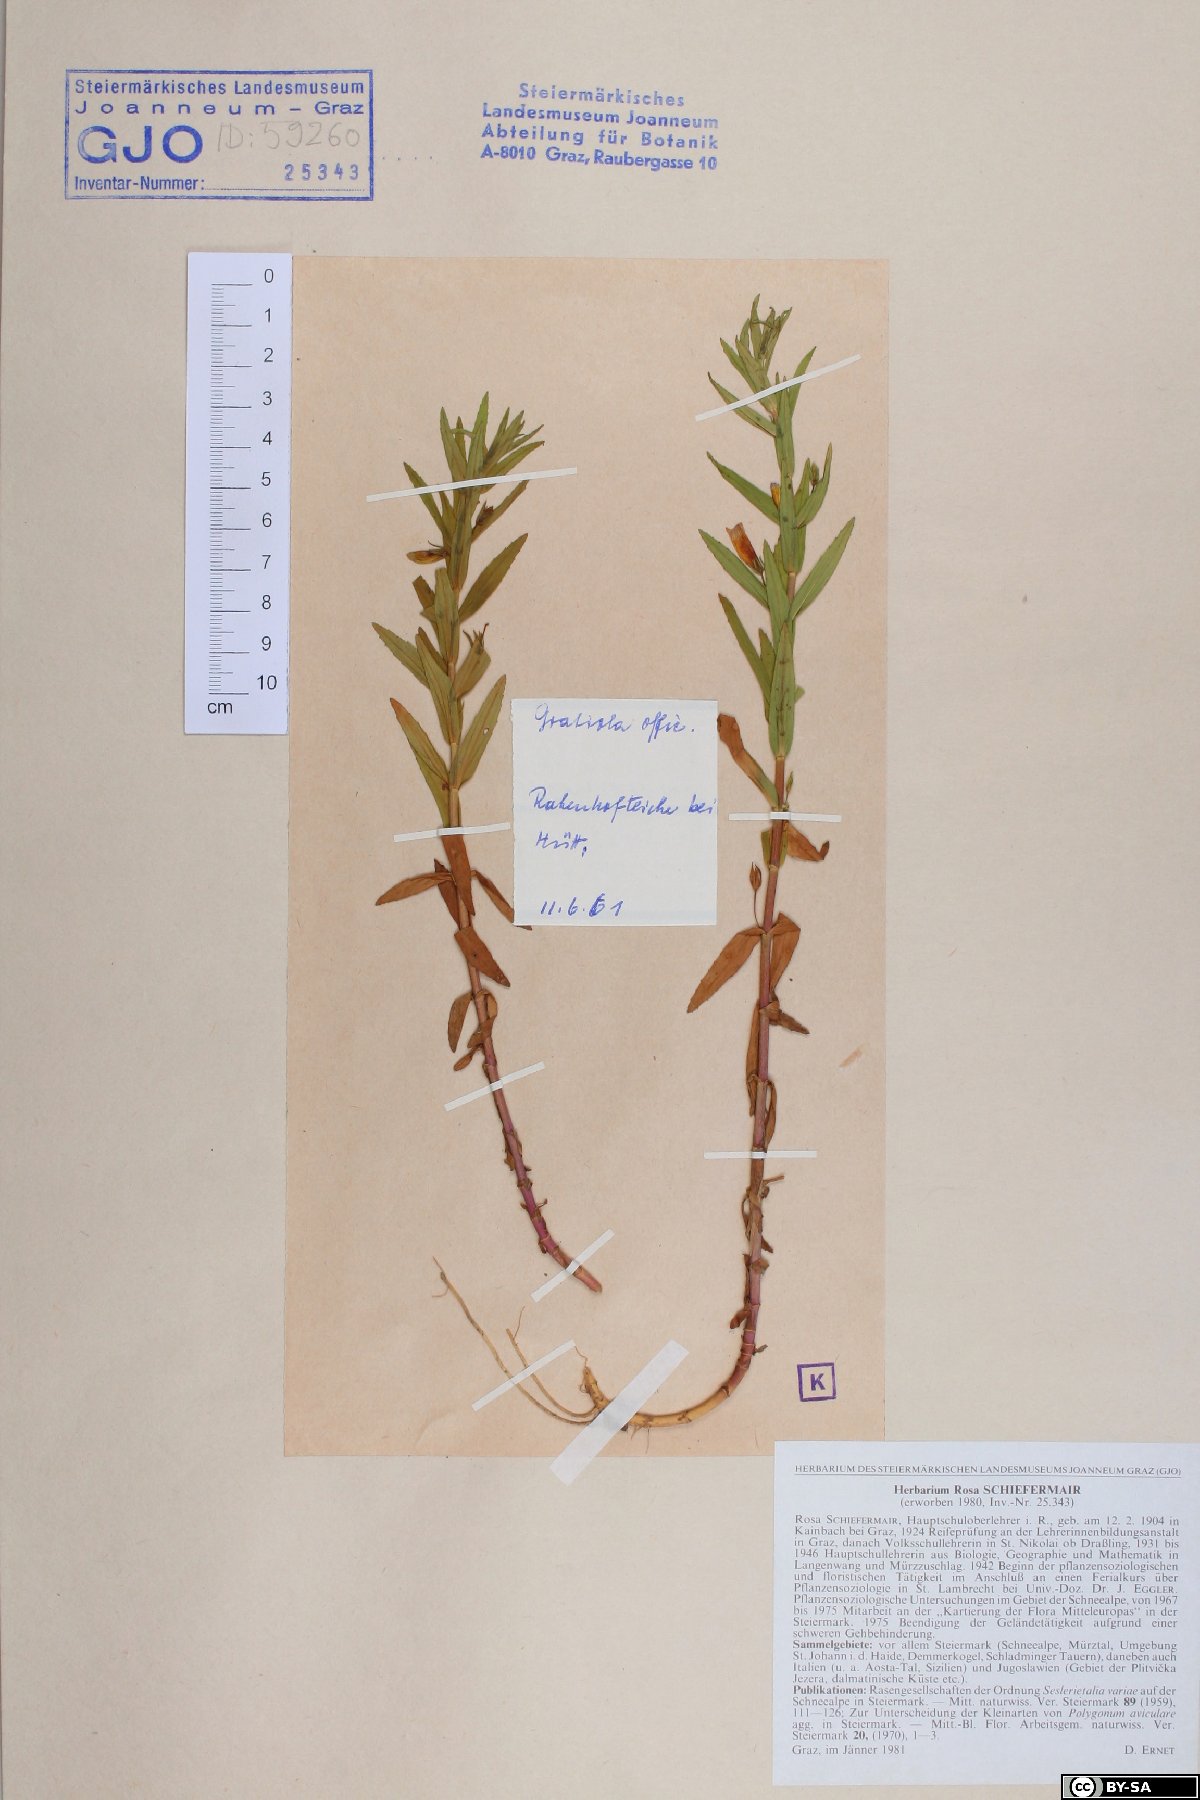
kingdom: Plantae
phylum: Tracheophyta
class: Magnoliopsida
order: Lamiales
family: Plantaginaceae
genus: Gratiola
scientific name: Gratiola officinalis
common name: Gratiola
